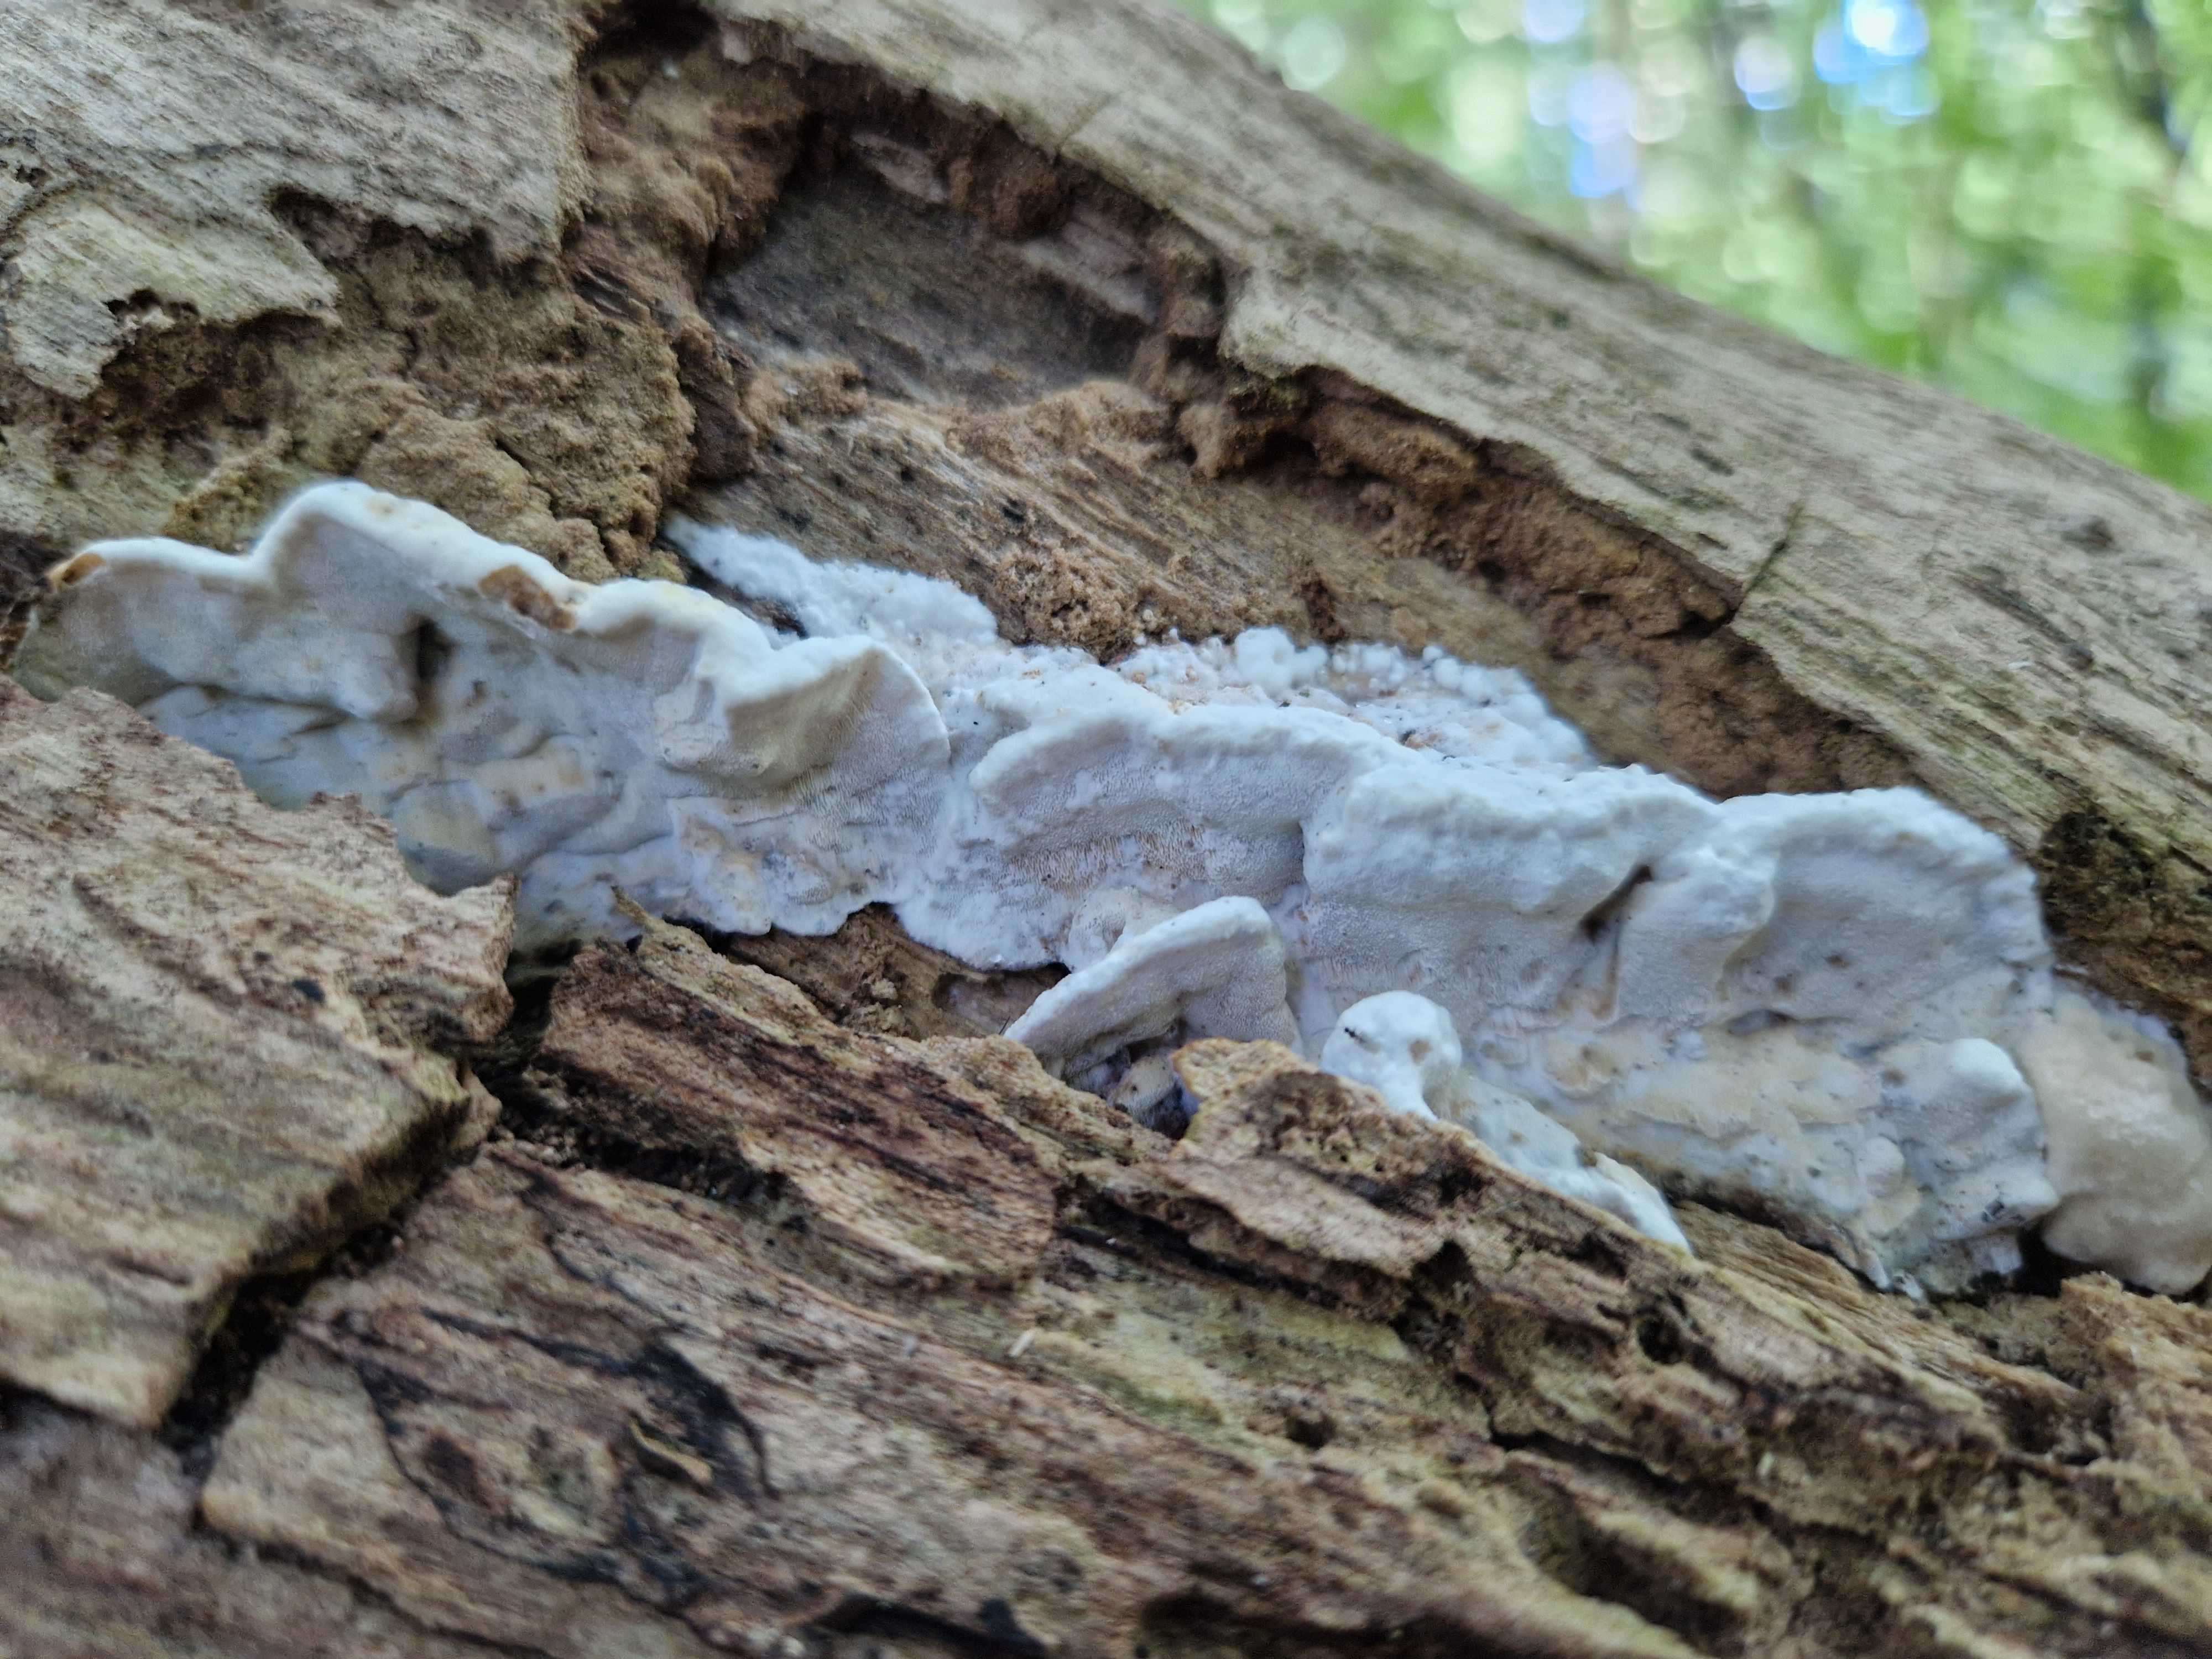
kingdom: Fungi
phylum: Basidiomycota
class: Agaricomycetes
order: Polyporales
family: Incrustoporiaceae
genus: Skeletocutis
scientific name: Skeletocutis nemoralis
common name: stor krystalporesvamp
